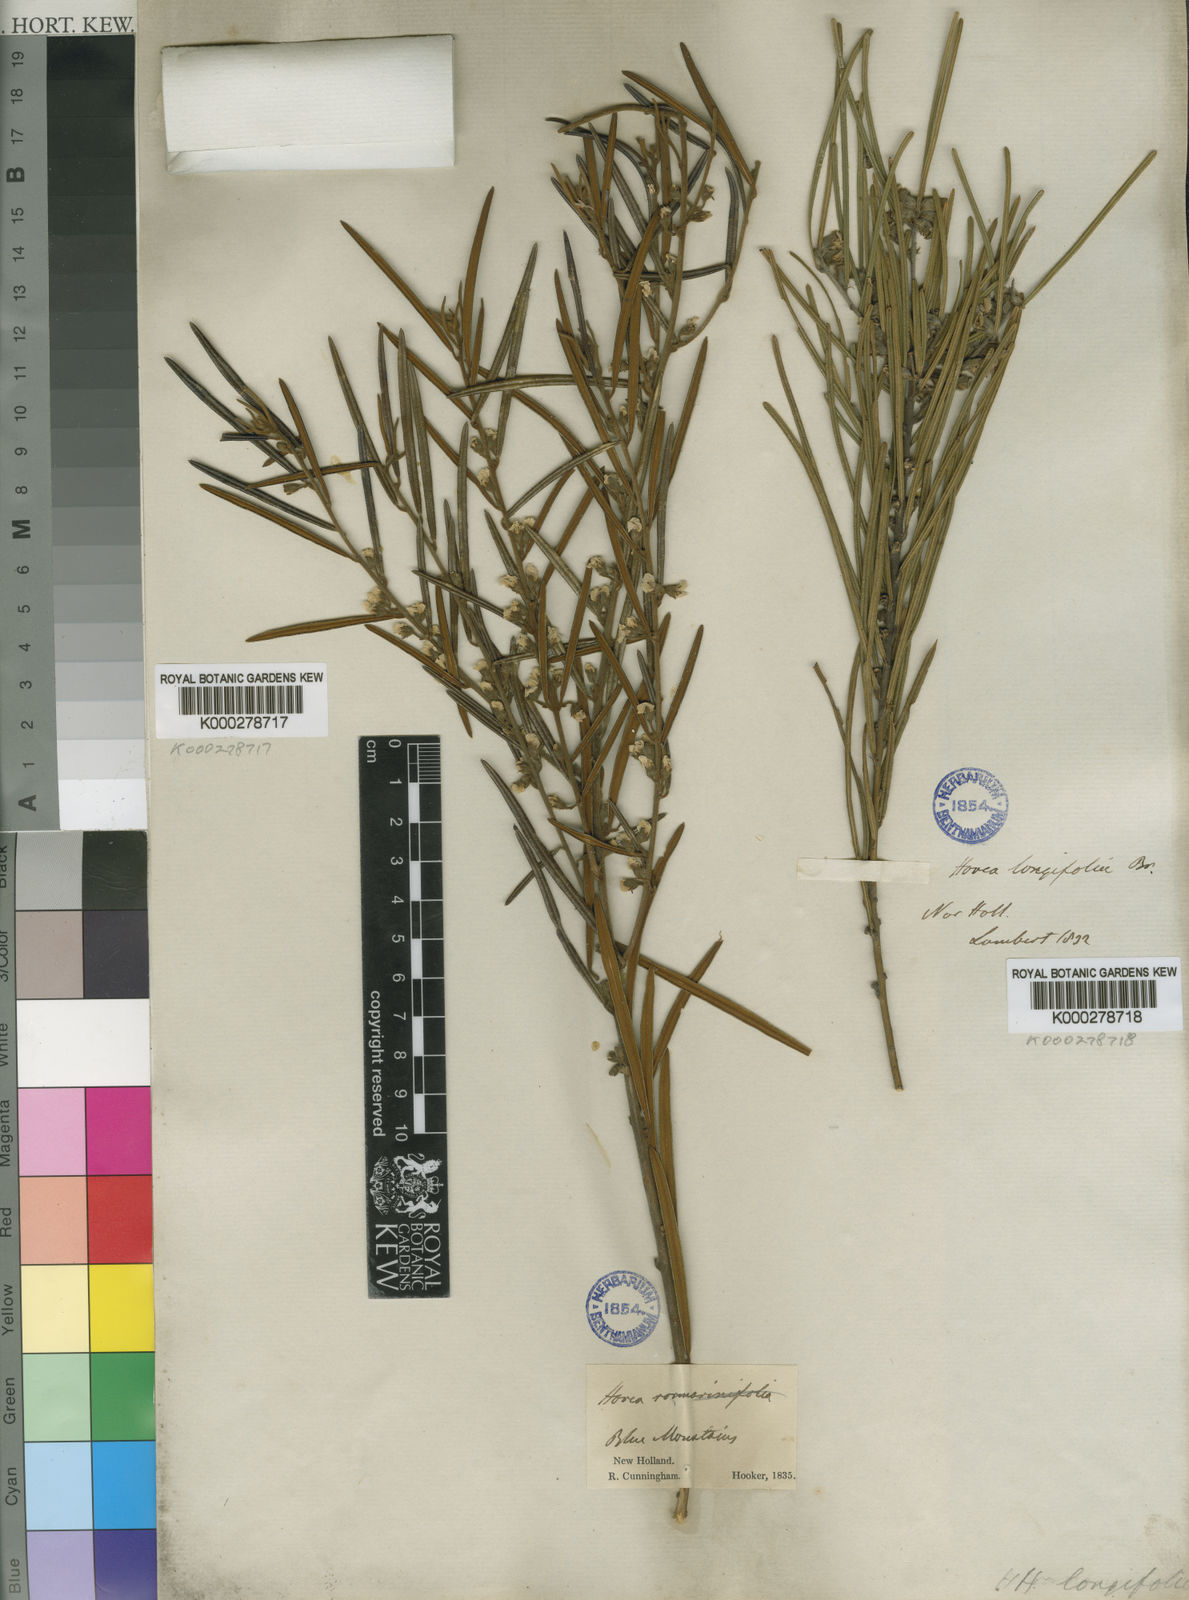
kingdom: Plantae
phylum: Tracheophyta
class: Magnoliopsida
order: Fabales
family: Fabaceae
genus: Hovea
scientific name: Hovea rosmarinifolia
